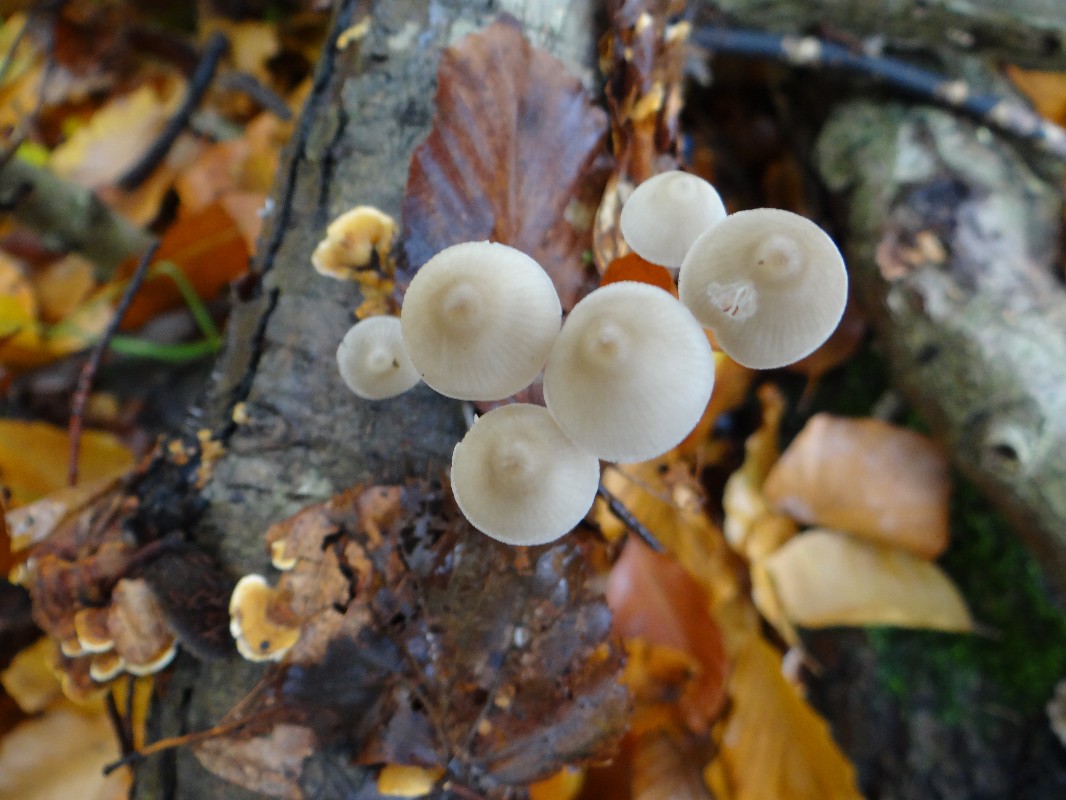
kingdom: Fungi
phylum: Basidiomycota
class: Agaricomycetes
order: Agaricales
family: Mycenaceae
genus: Mycena
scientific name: Mycena vitilis
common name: blankstokket huesvamp
